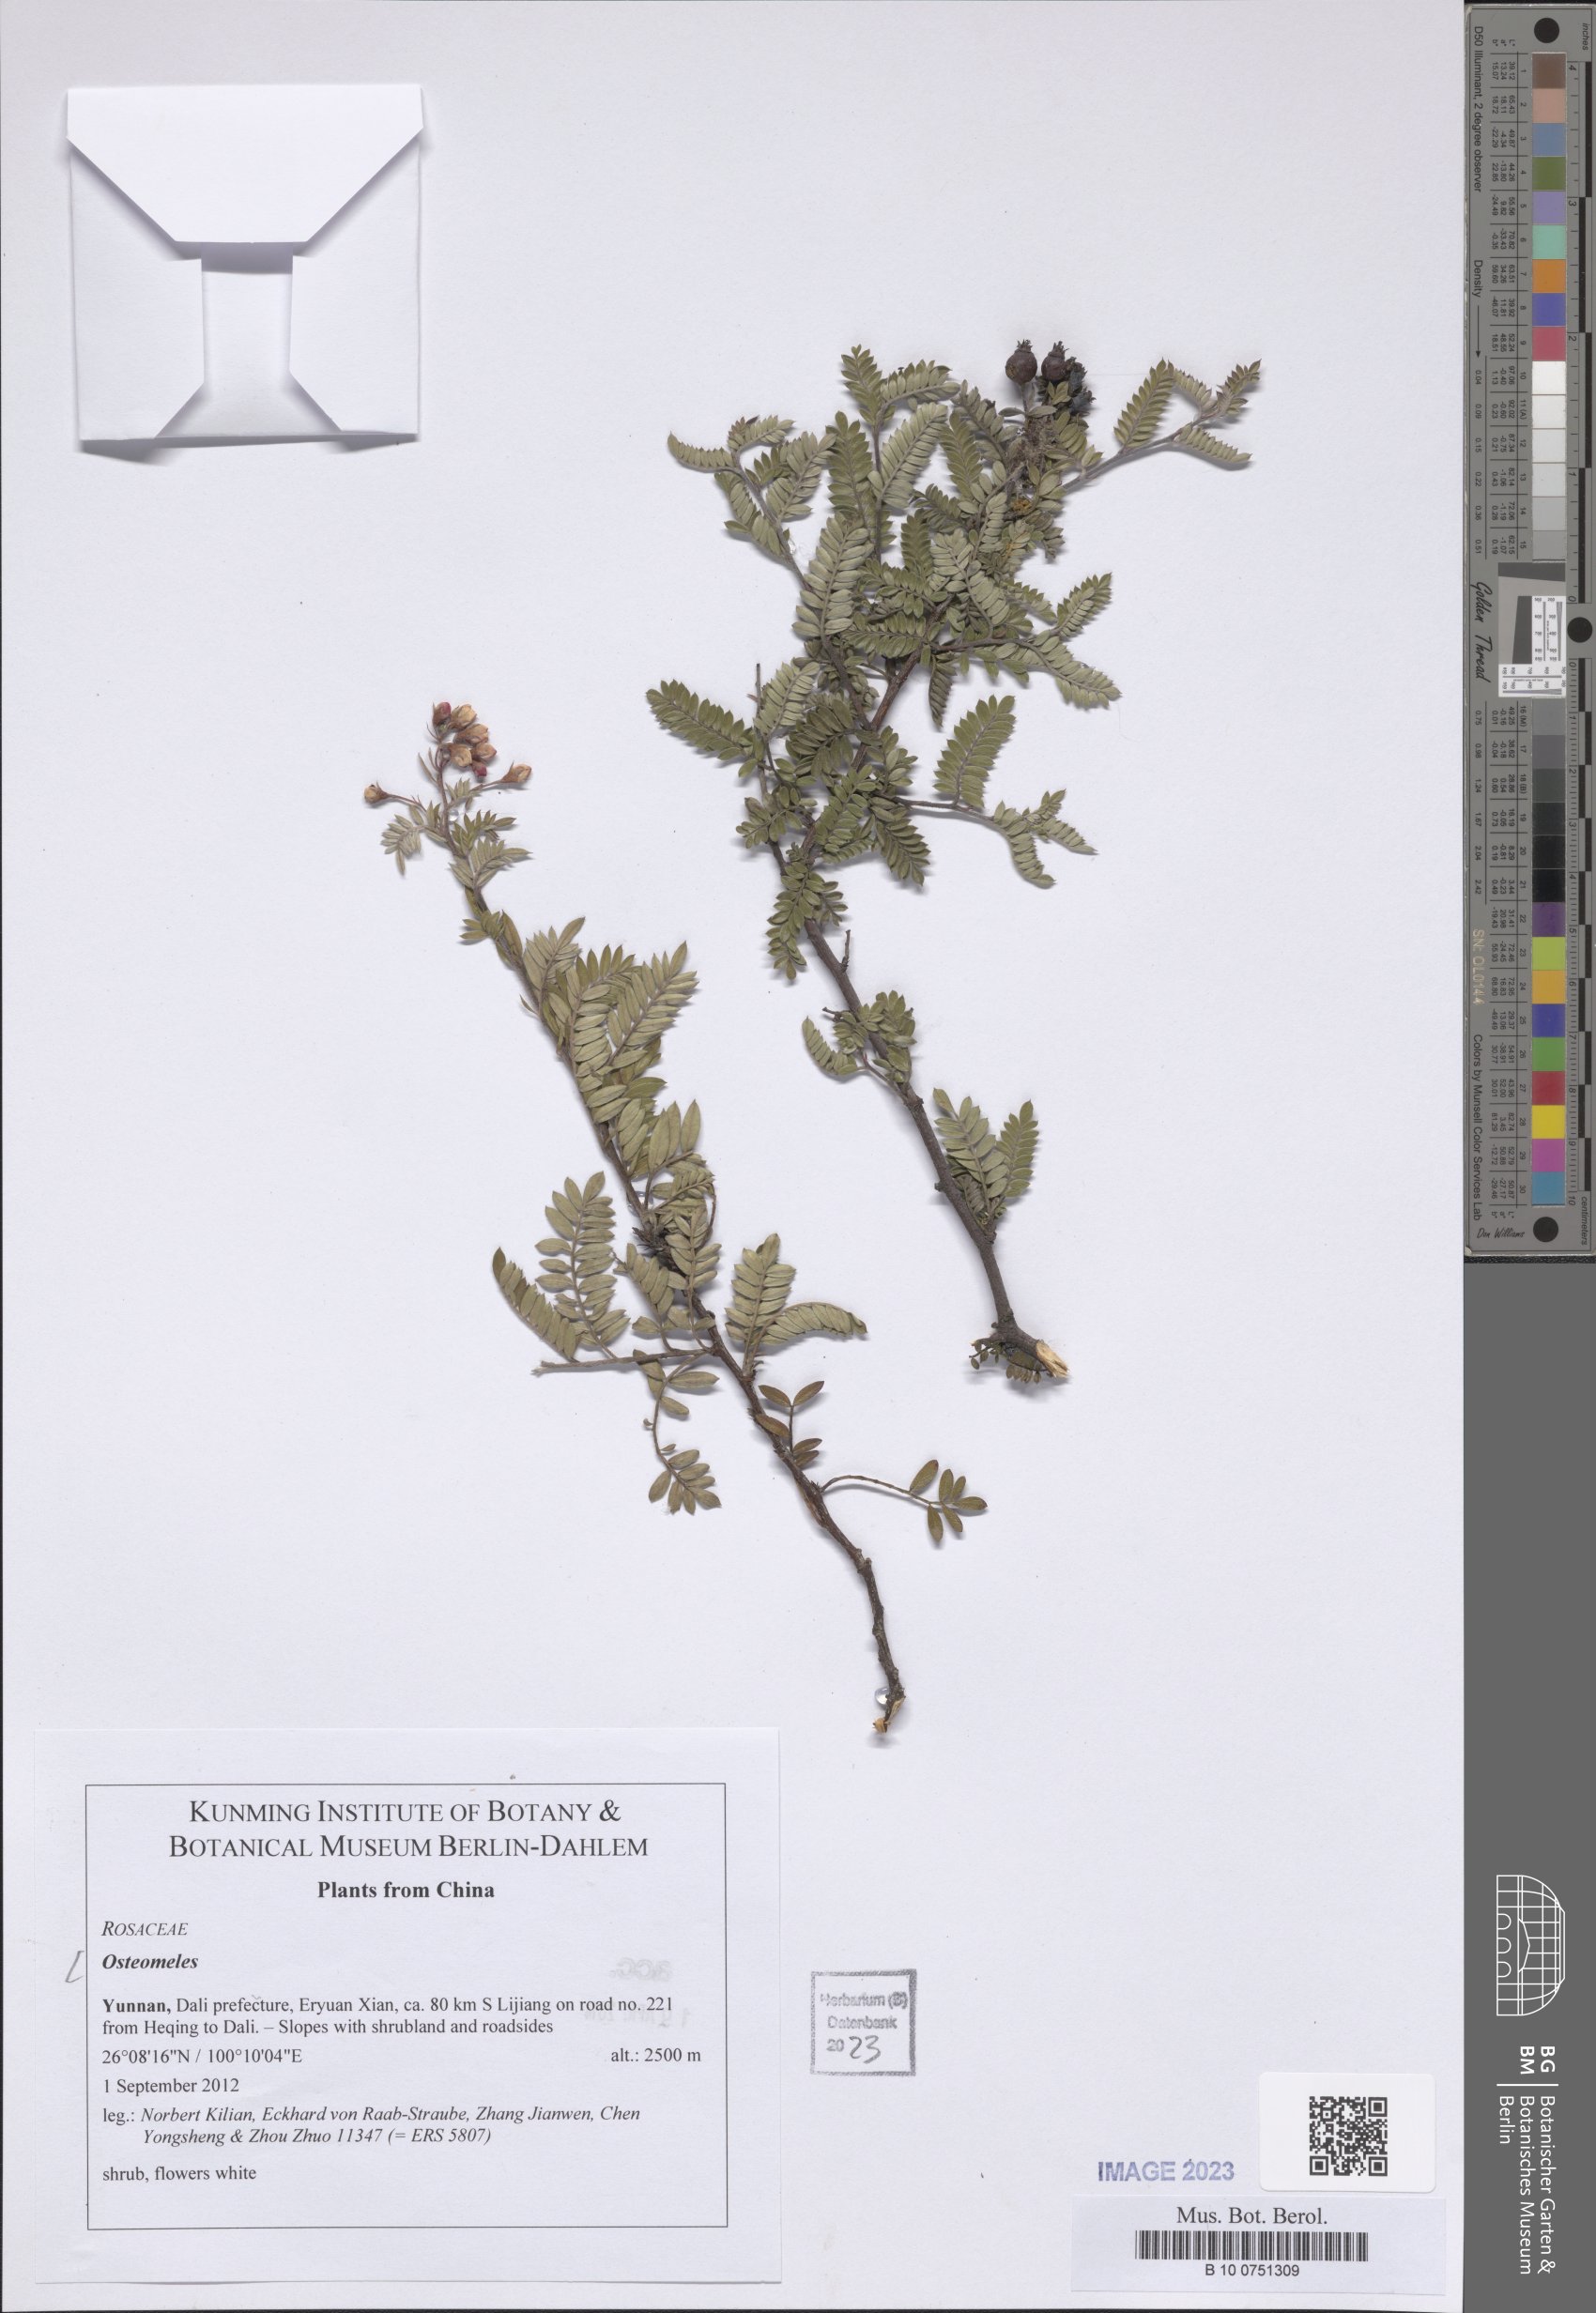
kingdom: Plantae
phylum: Tracheophyta
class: Magnoliopsida
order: Rosales
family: Rosaceae
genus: Osteomeles
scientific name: Osteomeles
